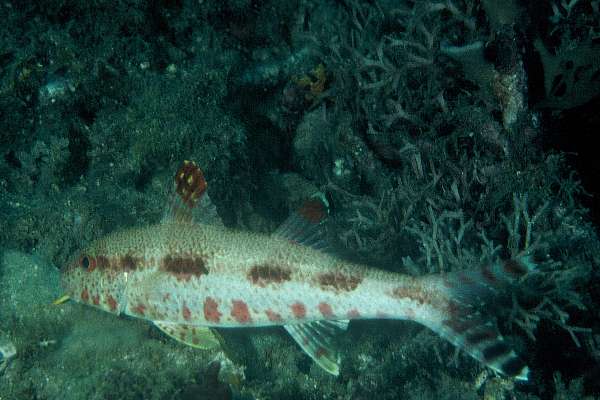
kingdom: Animalia
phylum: Chordata
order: Perciformes
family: Mullidae
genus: Upeneus
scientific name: Upeneus tragula
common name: Freckled goatfish
